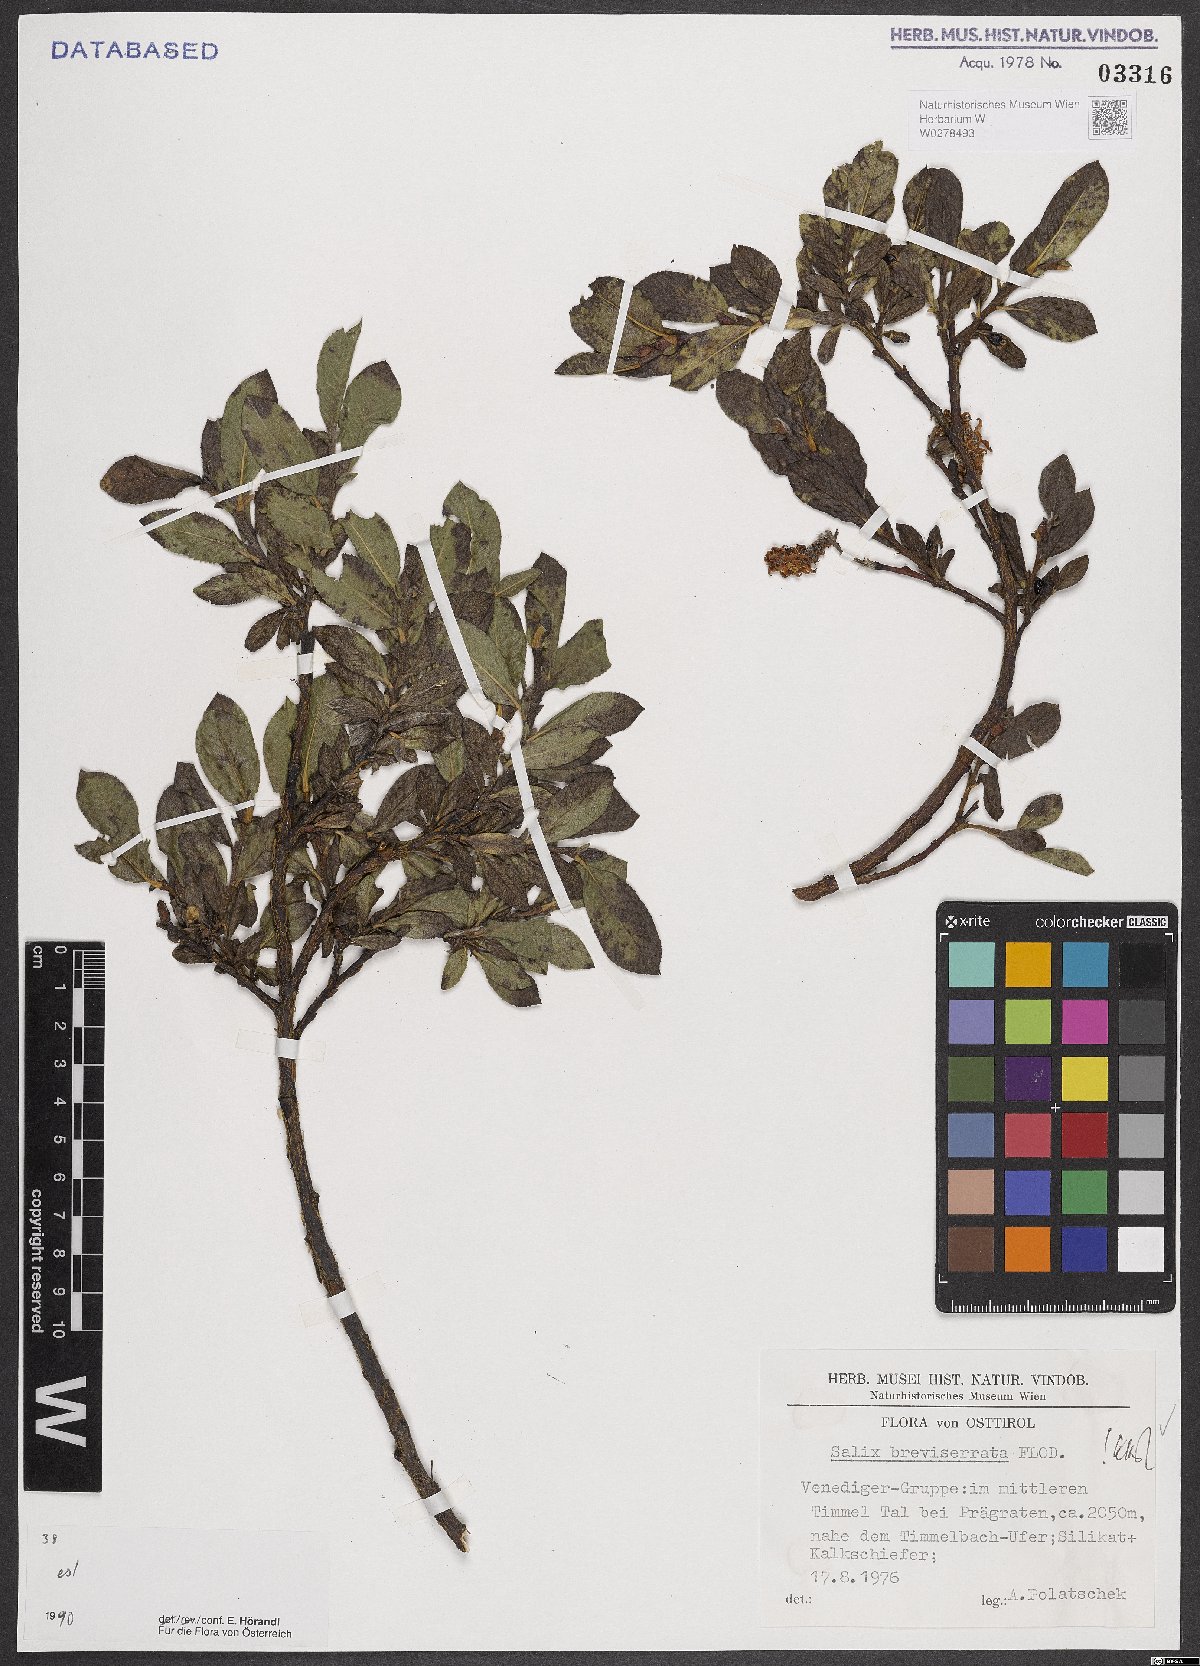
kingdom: Plantae
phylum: Tracheophyta
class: Magnoliopsida
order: Malpighiales
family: Salicaceae
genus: Salix
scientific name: Salix breviserrata
